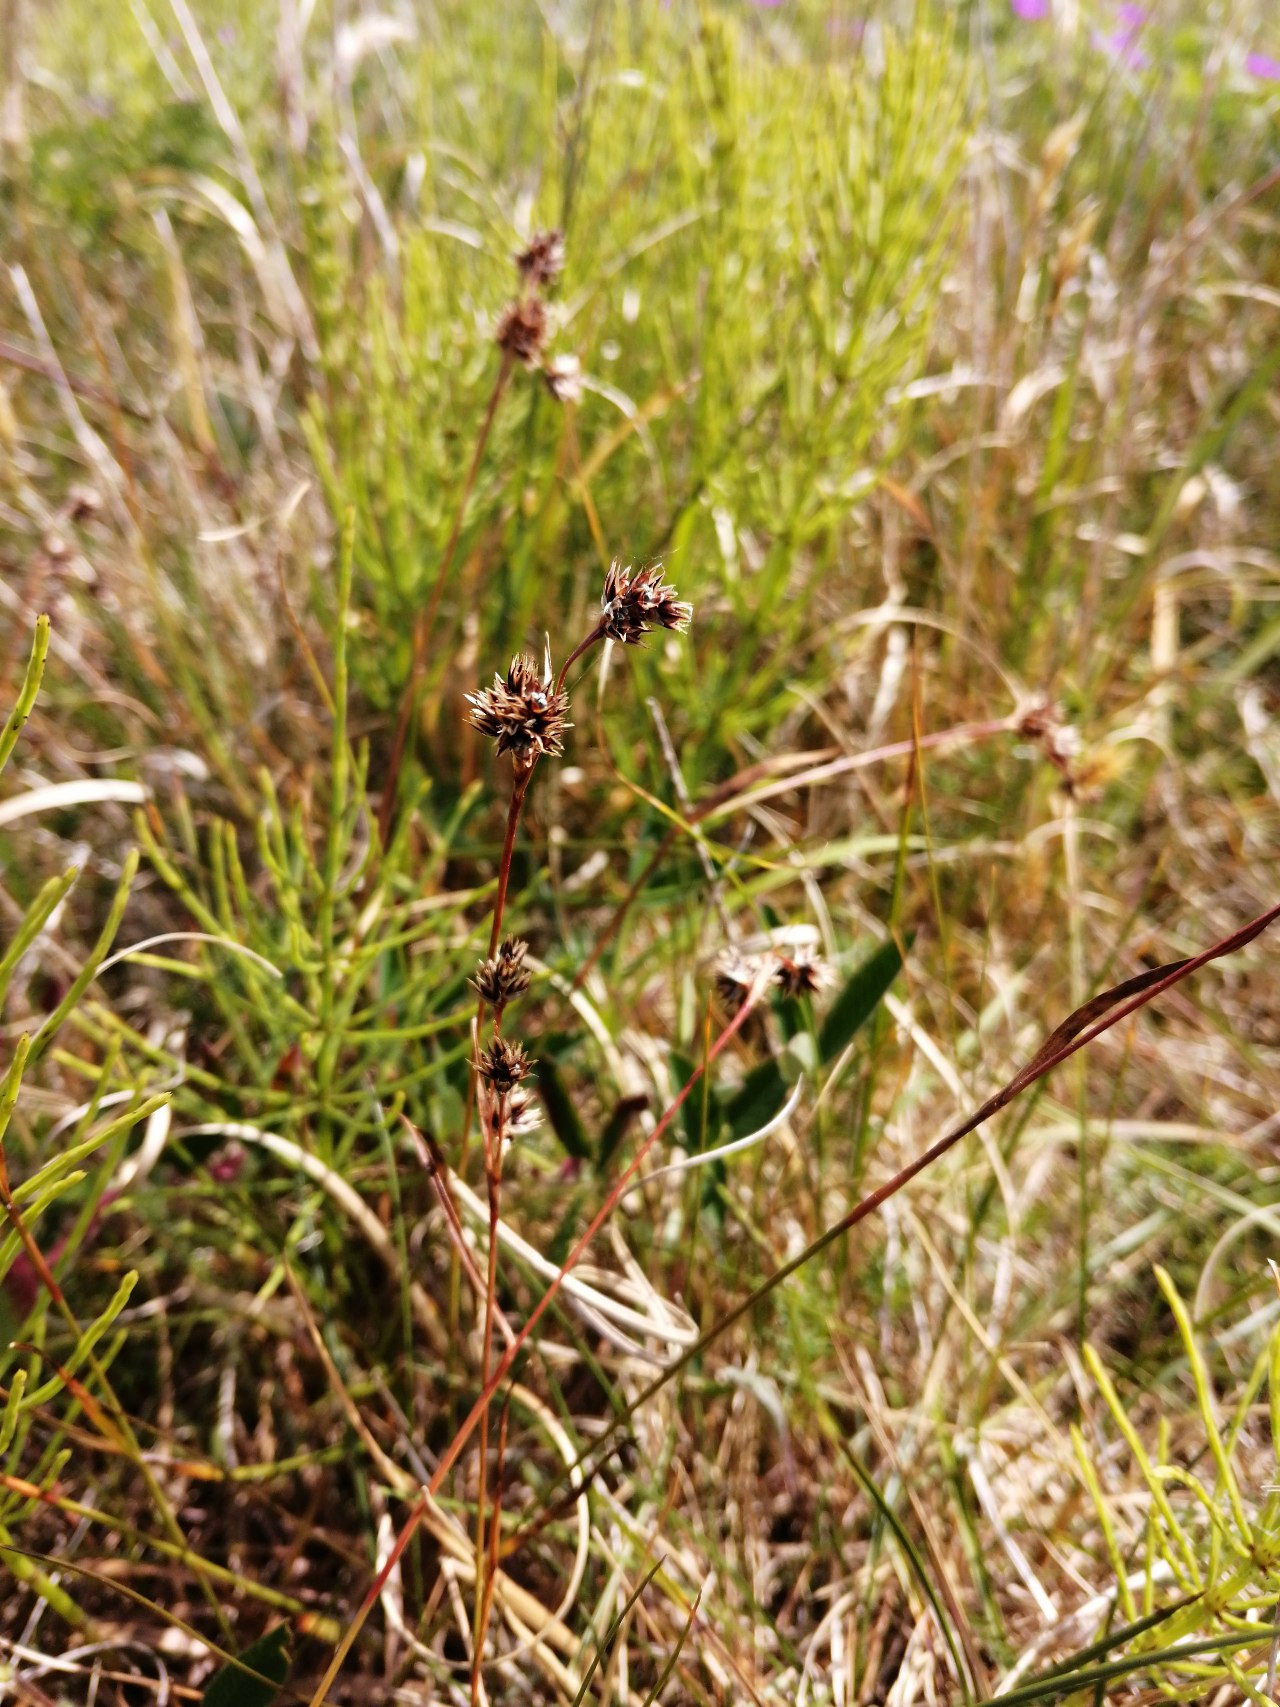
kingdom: Plantae
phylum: Tracheophyta
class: Liliopsida
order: Poales
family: Juncaceae
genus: Luzula
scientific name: Luzula campestris
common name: Mark-frytle
